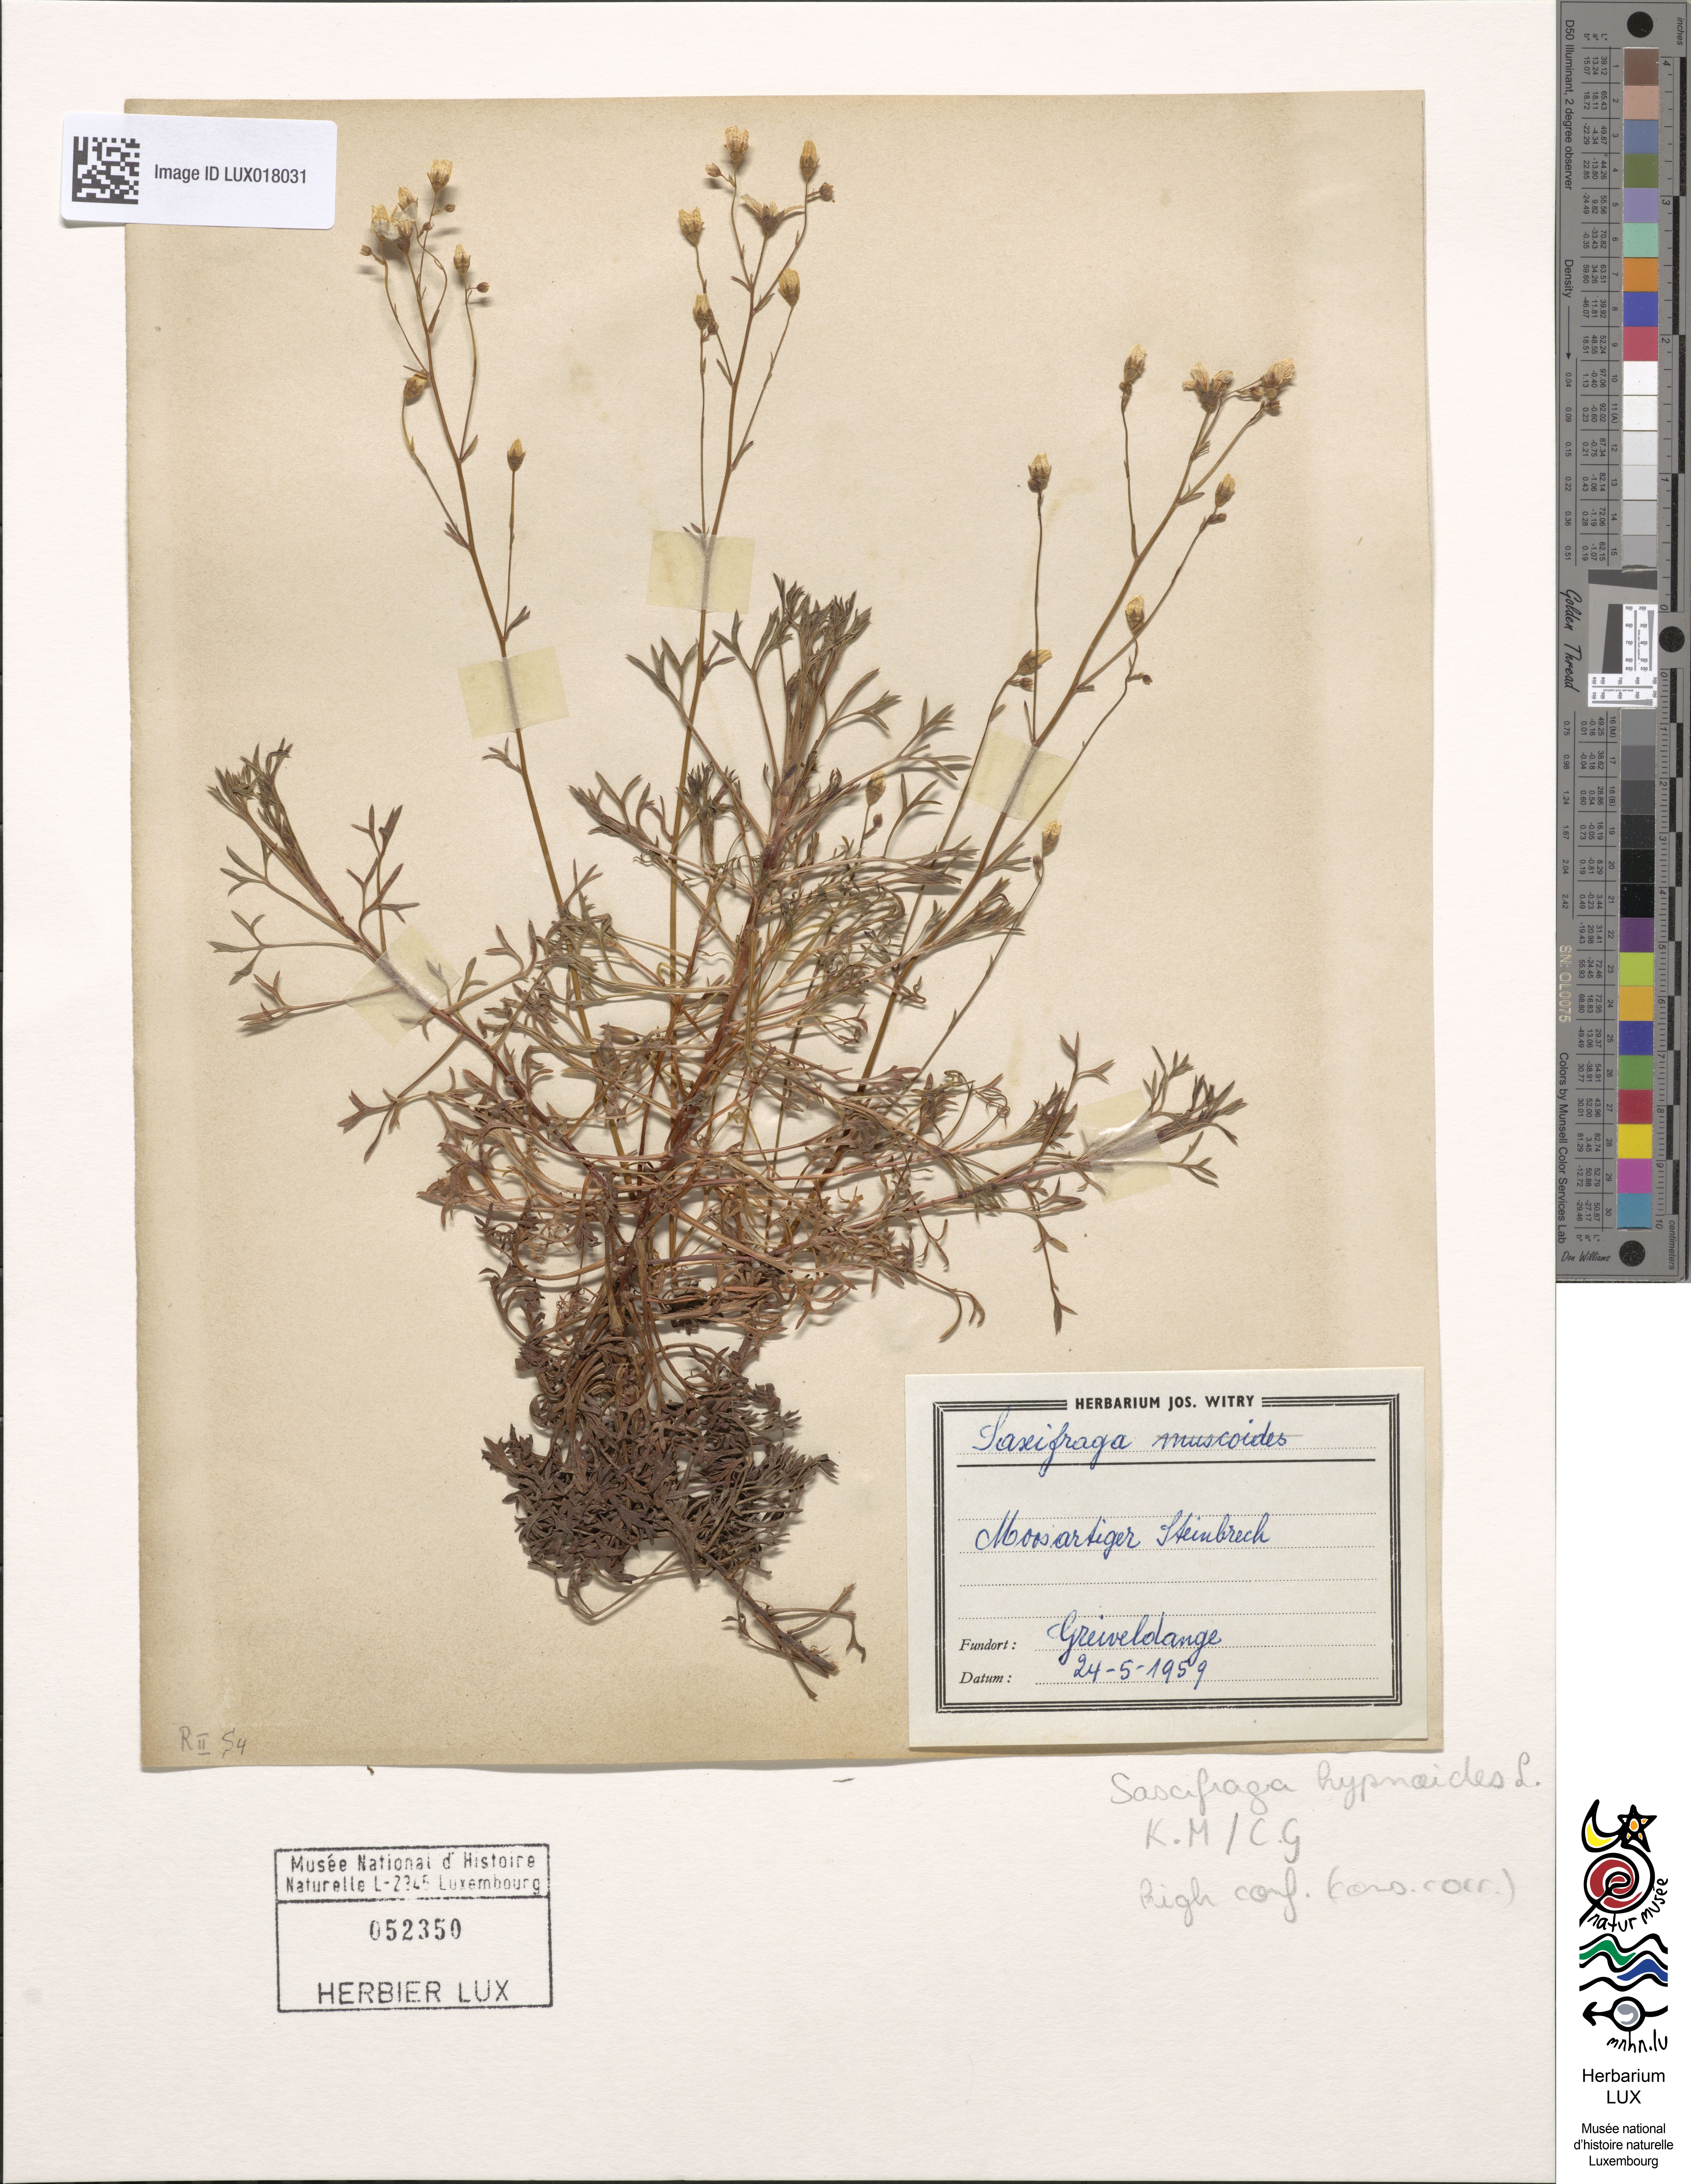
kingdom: Plantae
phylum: Tracheophyta
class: Magnoliopsida
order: Saxifragales
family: Saxifragaceae
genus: Saxifraga
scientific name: Saxifraga hypnoides
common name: Mossy saxifrage
